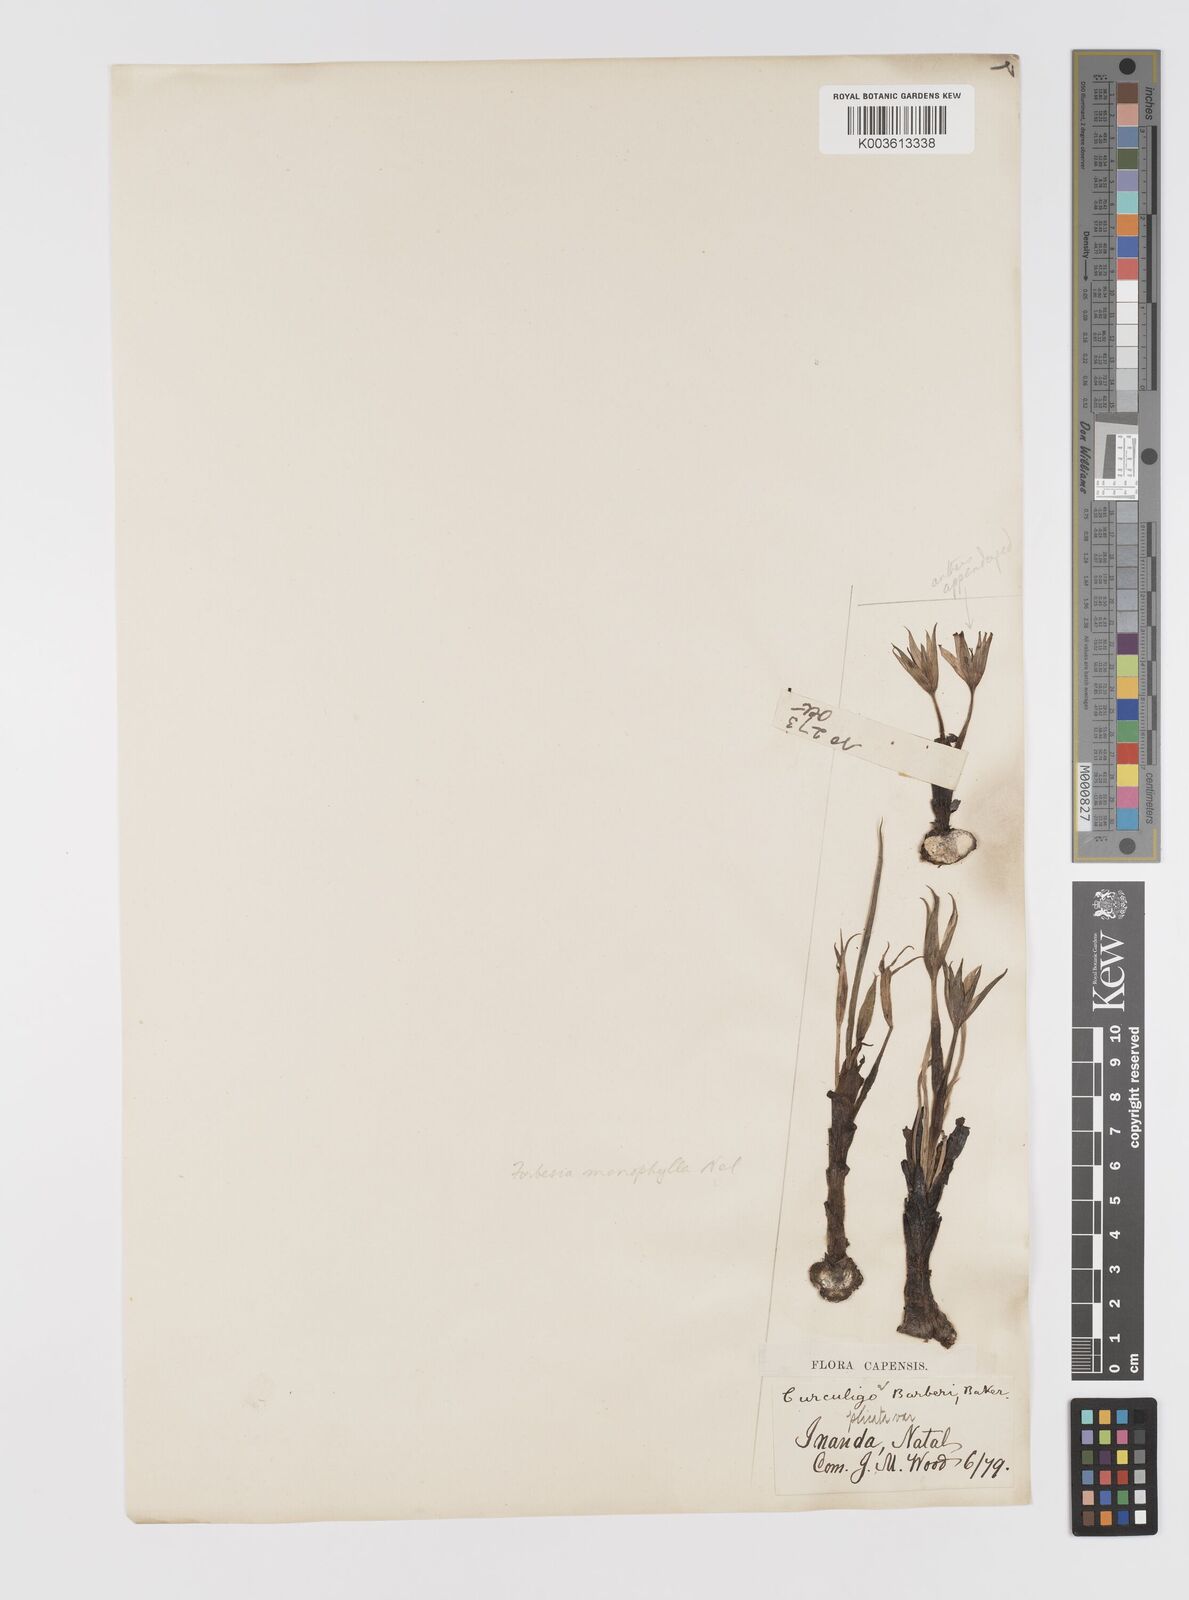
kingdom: Plantae
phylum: Tracheophyta
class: Liliopsida
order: Asparagales
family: Hypoxidaceae
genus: Empodium
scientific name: Empodium monophyllum
